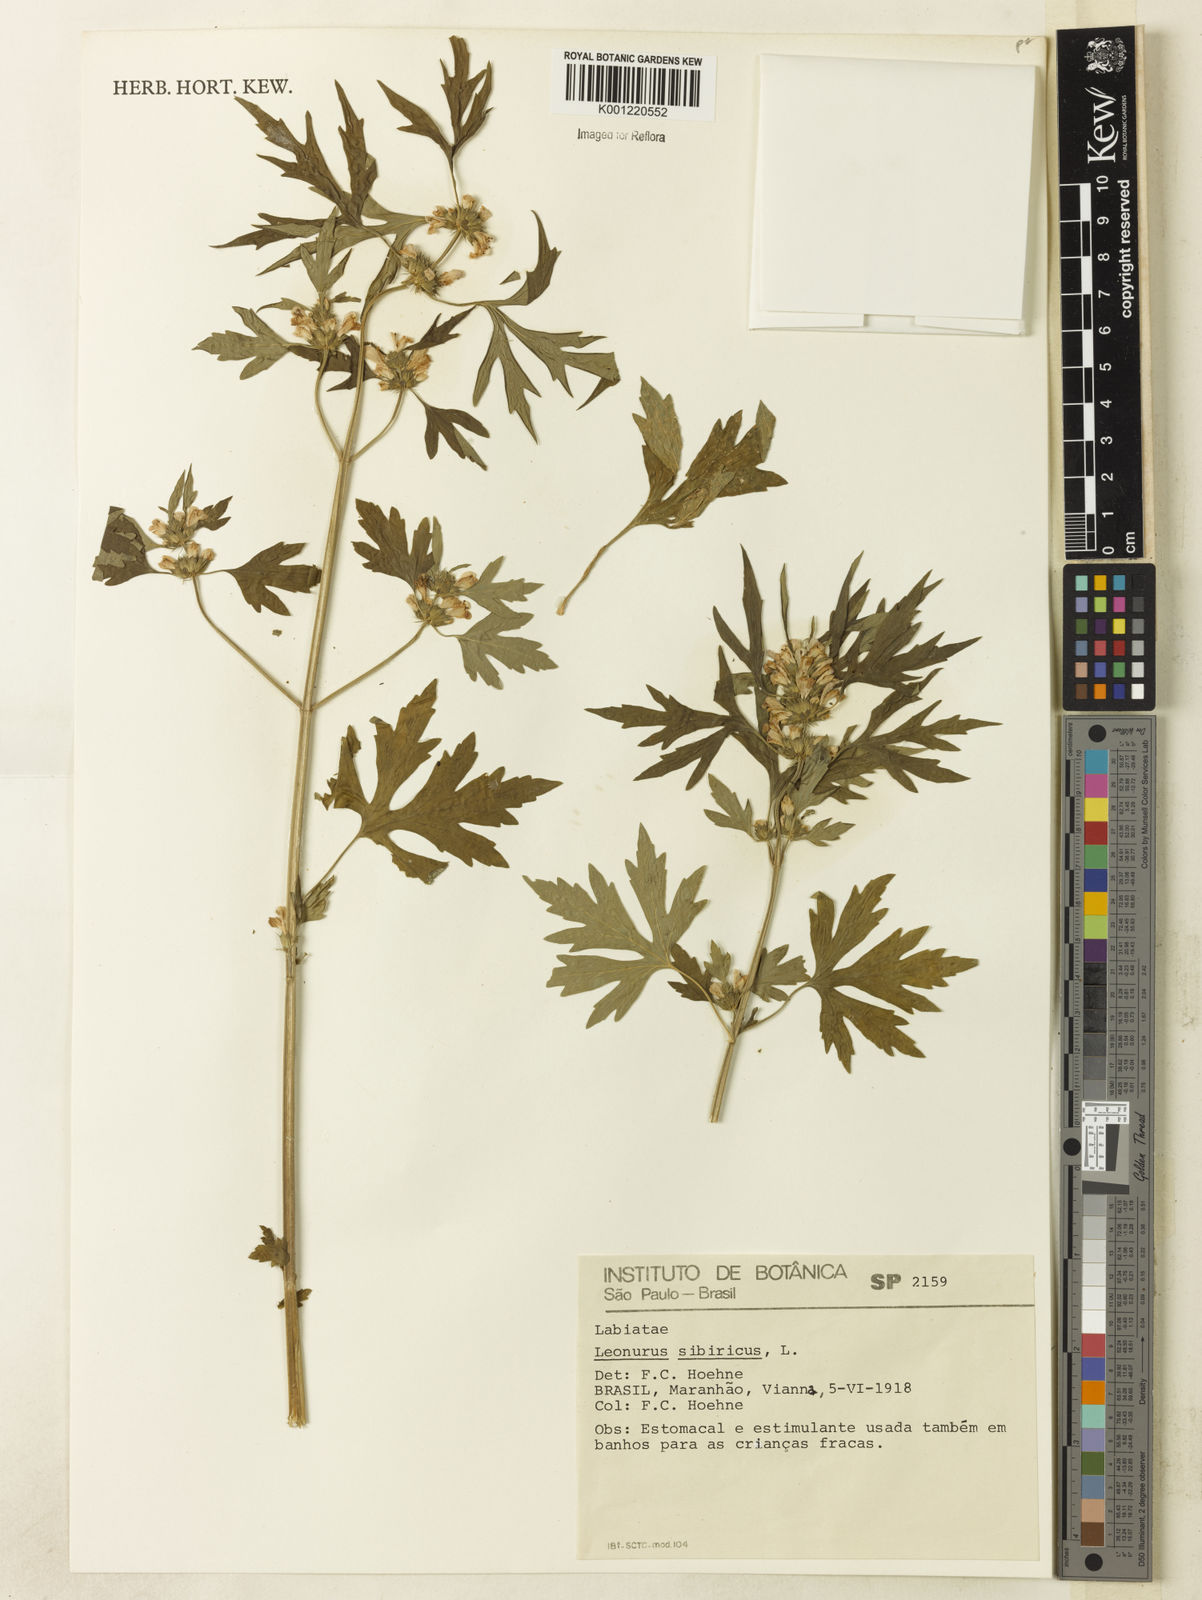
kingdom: Plantae
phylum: Tracheophyta
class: Magnoliopsida
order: Lamiales
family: Lamiaceae
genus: Leonurus
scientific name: Leonurus japonicus
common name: Honeyweed
